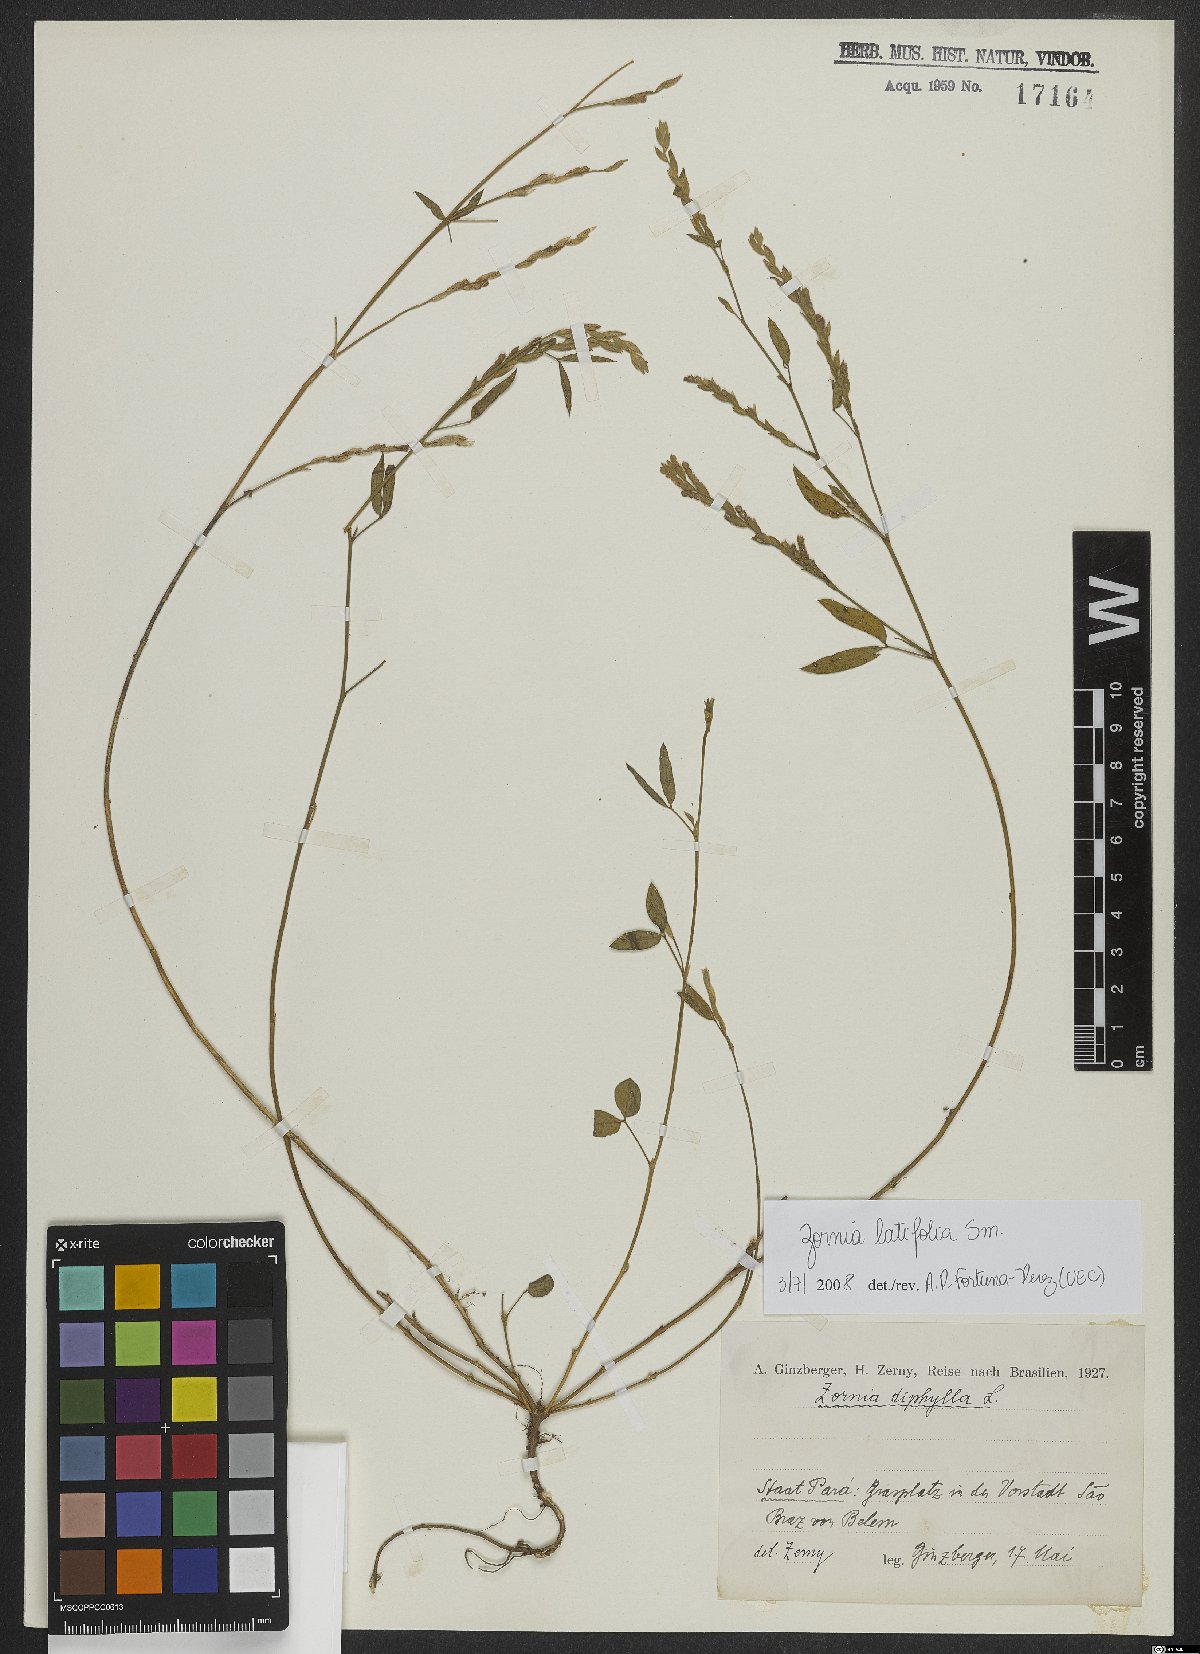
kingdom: Plantae
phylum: Tracheophyta
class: Magnoliopsida
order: Fabales
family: Fabaceae
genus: Zornia
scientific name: Zornia sericea
